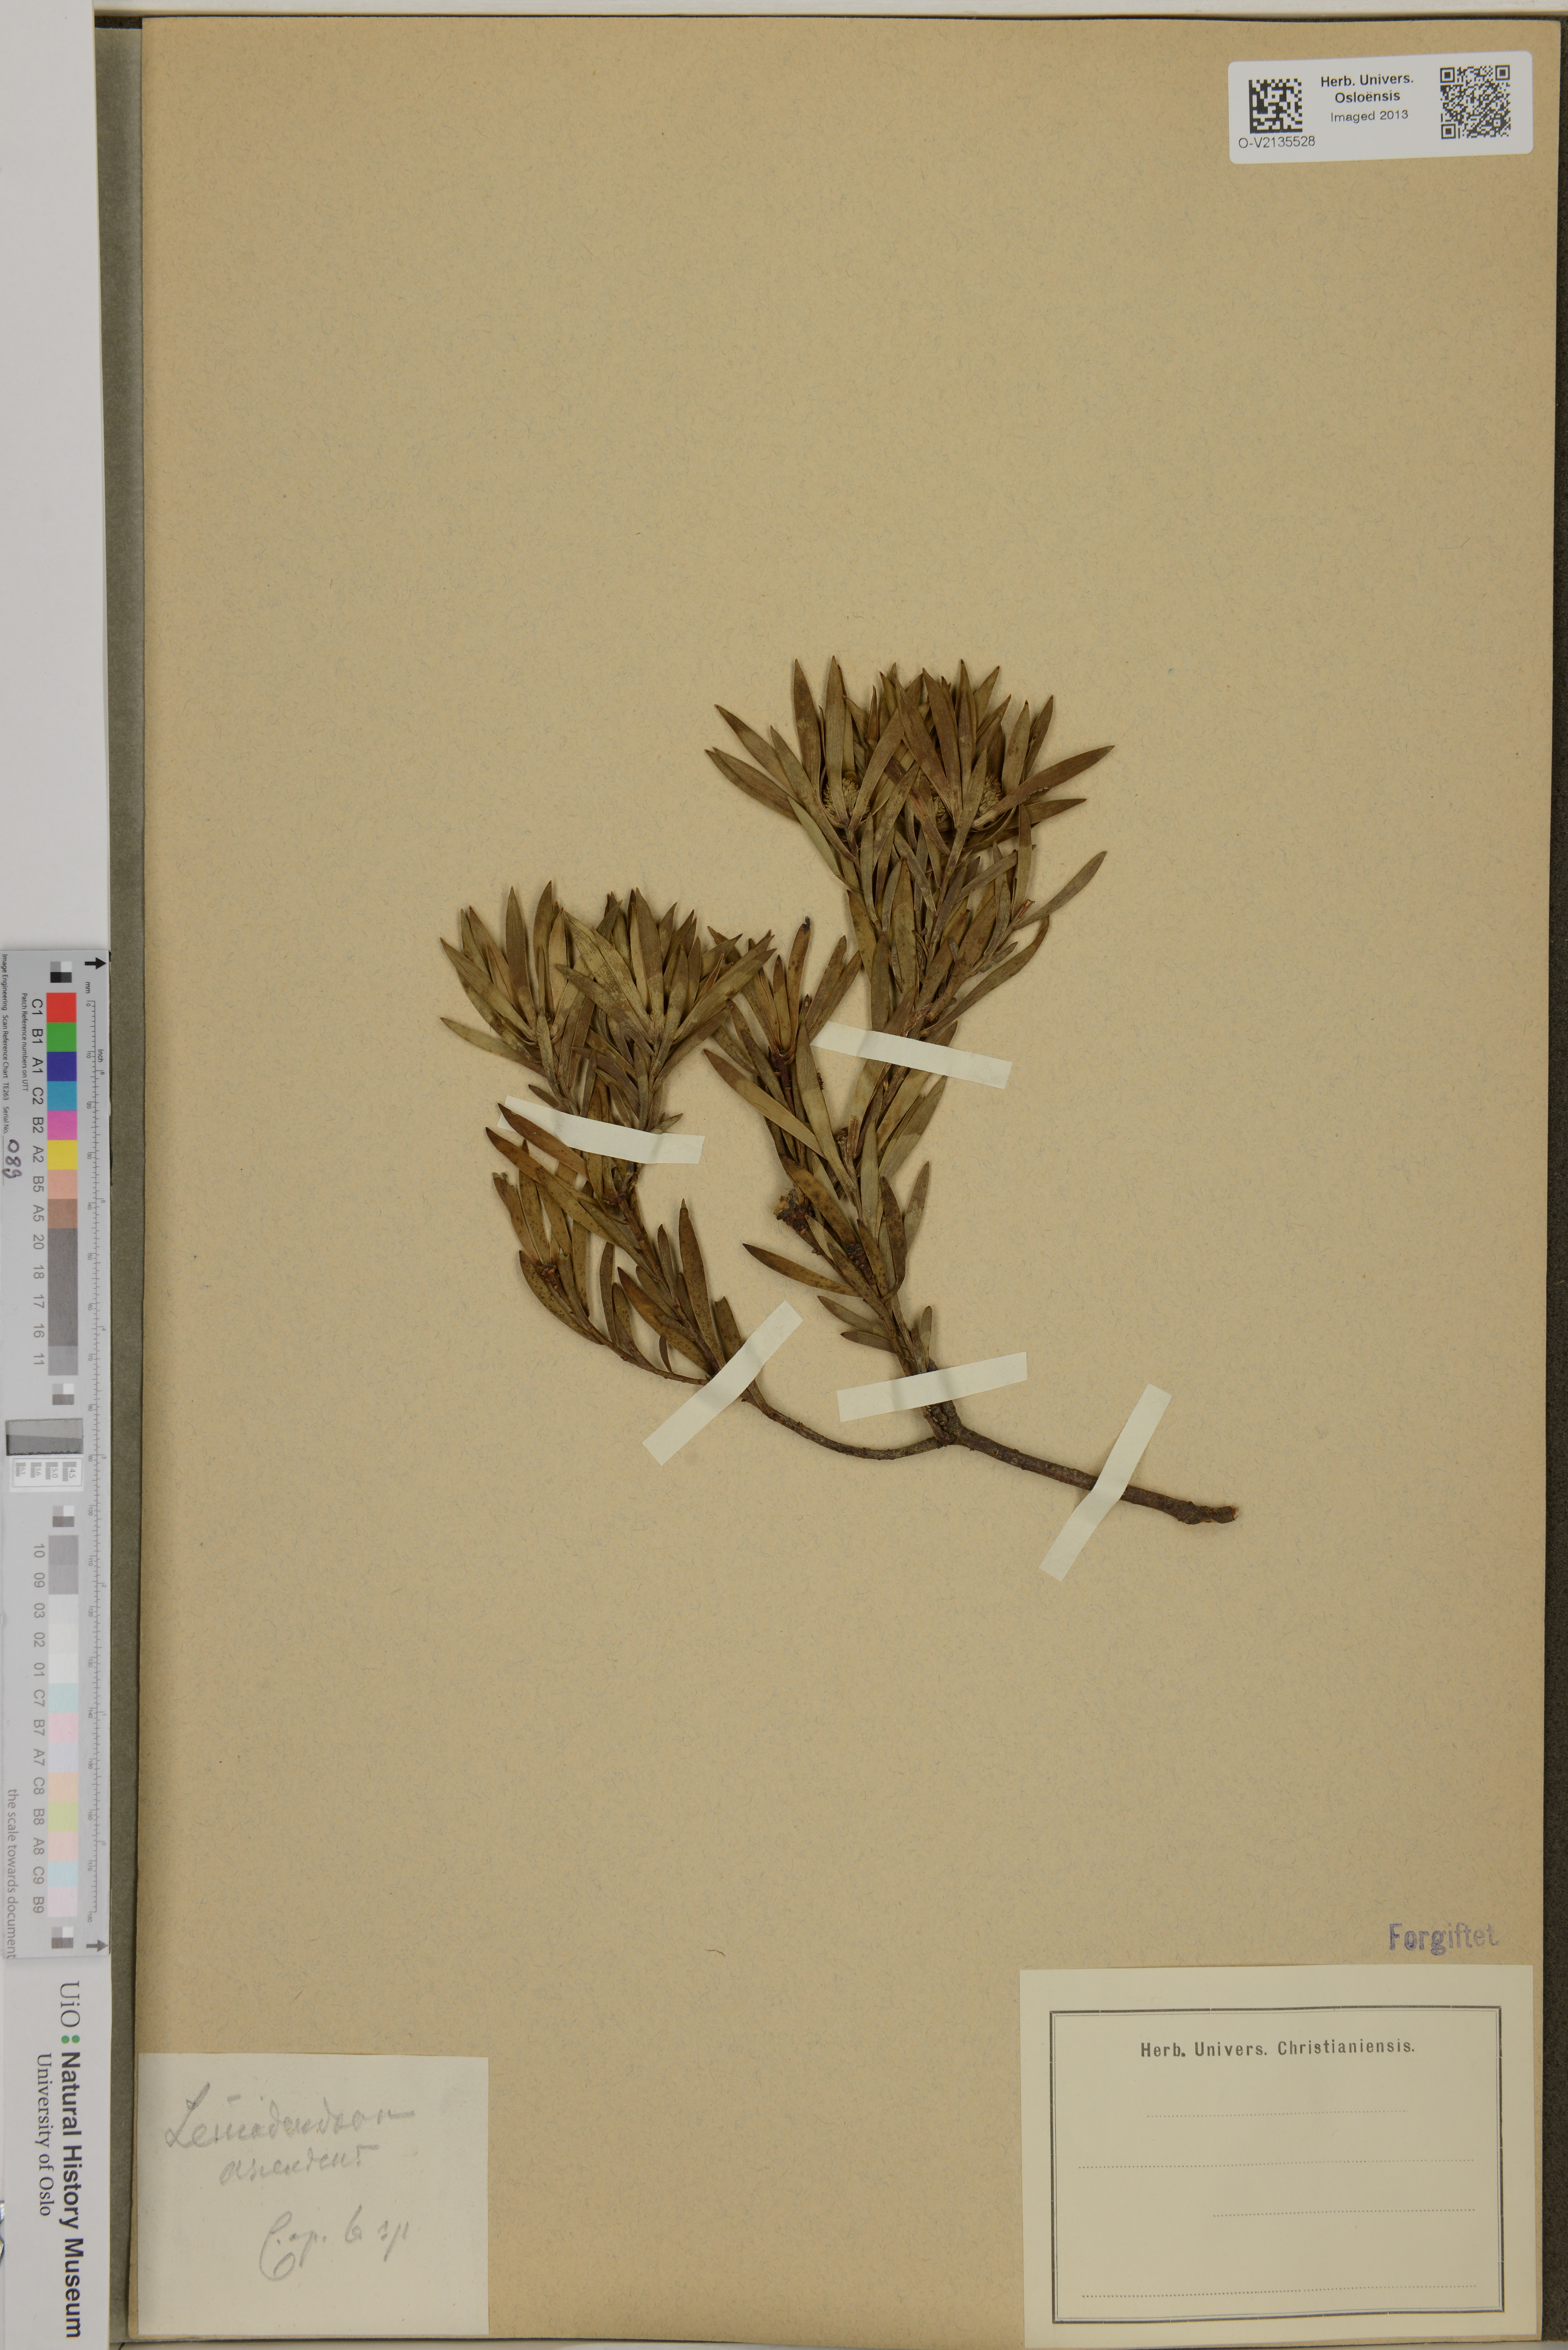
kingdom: Plantae
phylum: Tracheophyta
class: Magnoliopsida
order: Proteales
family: Proteaceae
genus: Leucadendron
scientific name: Leucadendron salignum
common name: Common sunshine conebush
